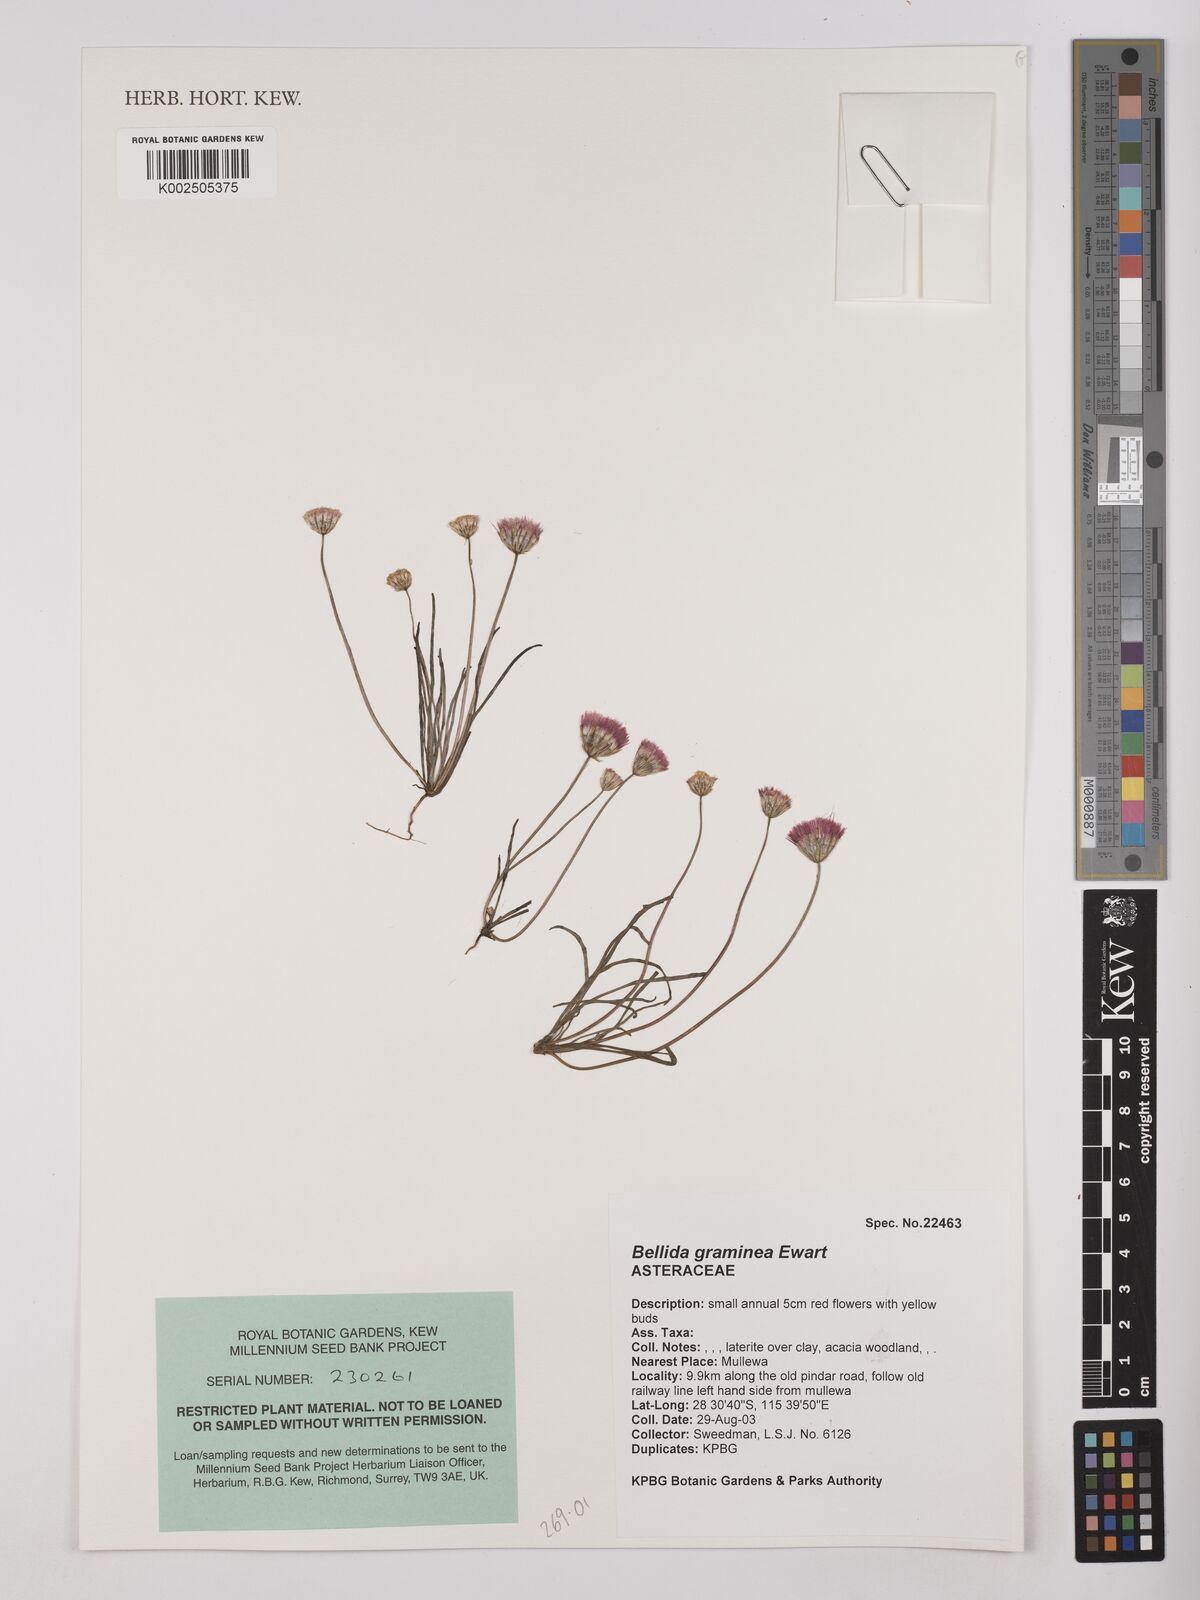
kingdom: Plantae
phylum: Tracheophyta
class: Magnoliopsida
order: Asterales
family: Asteraceae
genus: Bellida
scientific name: Bellida graminea
